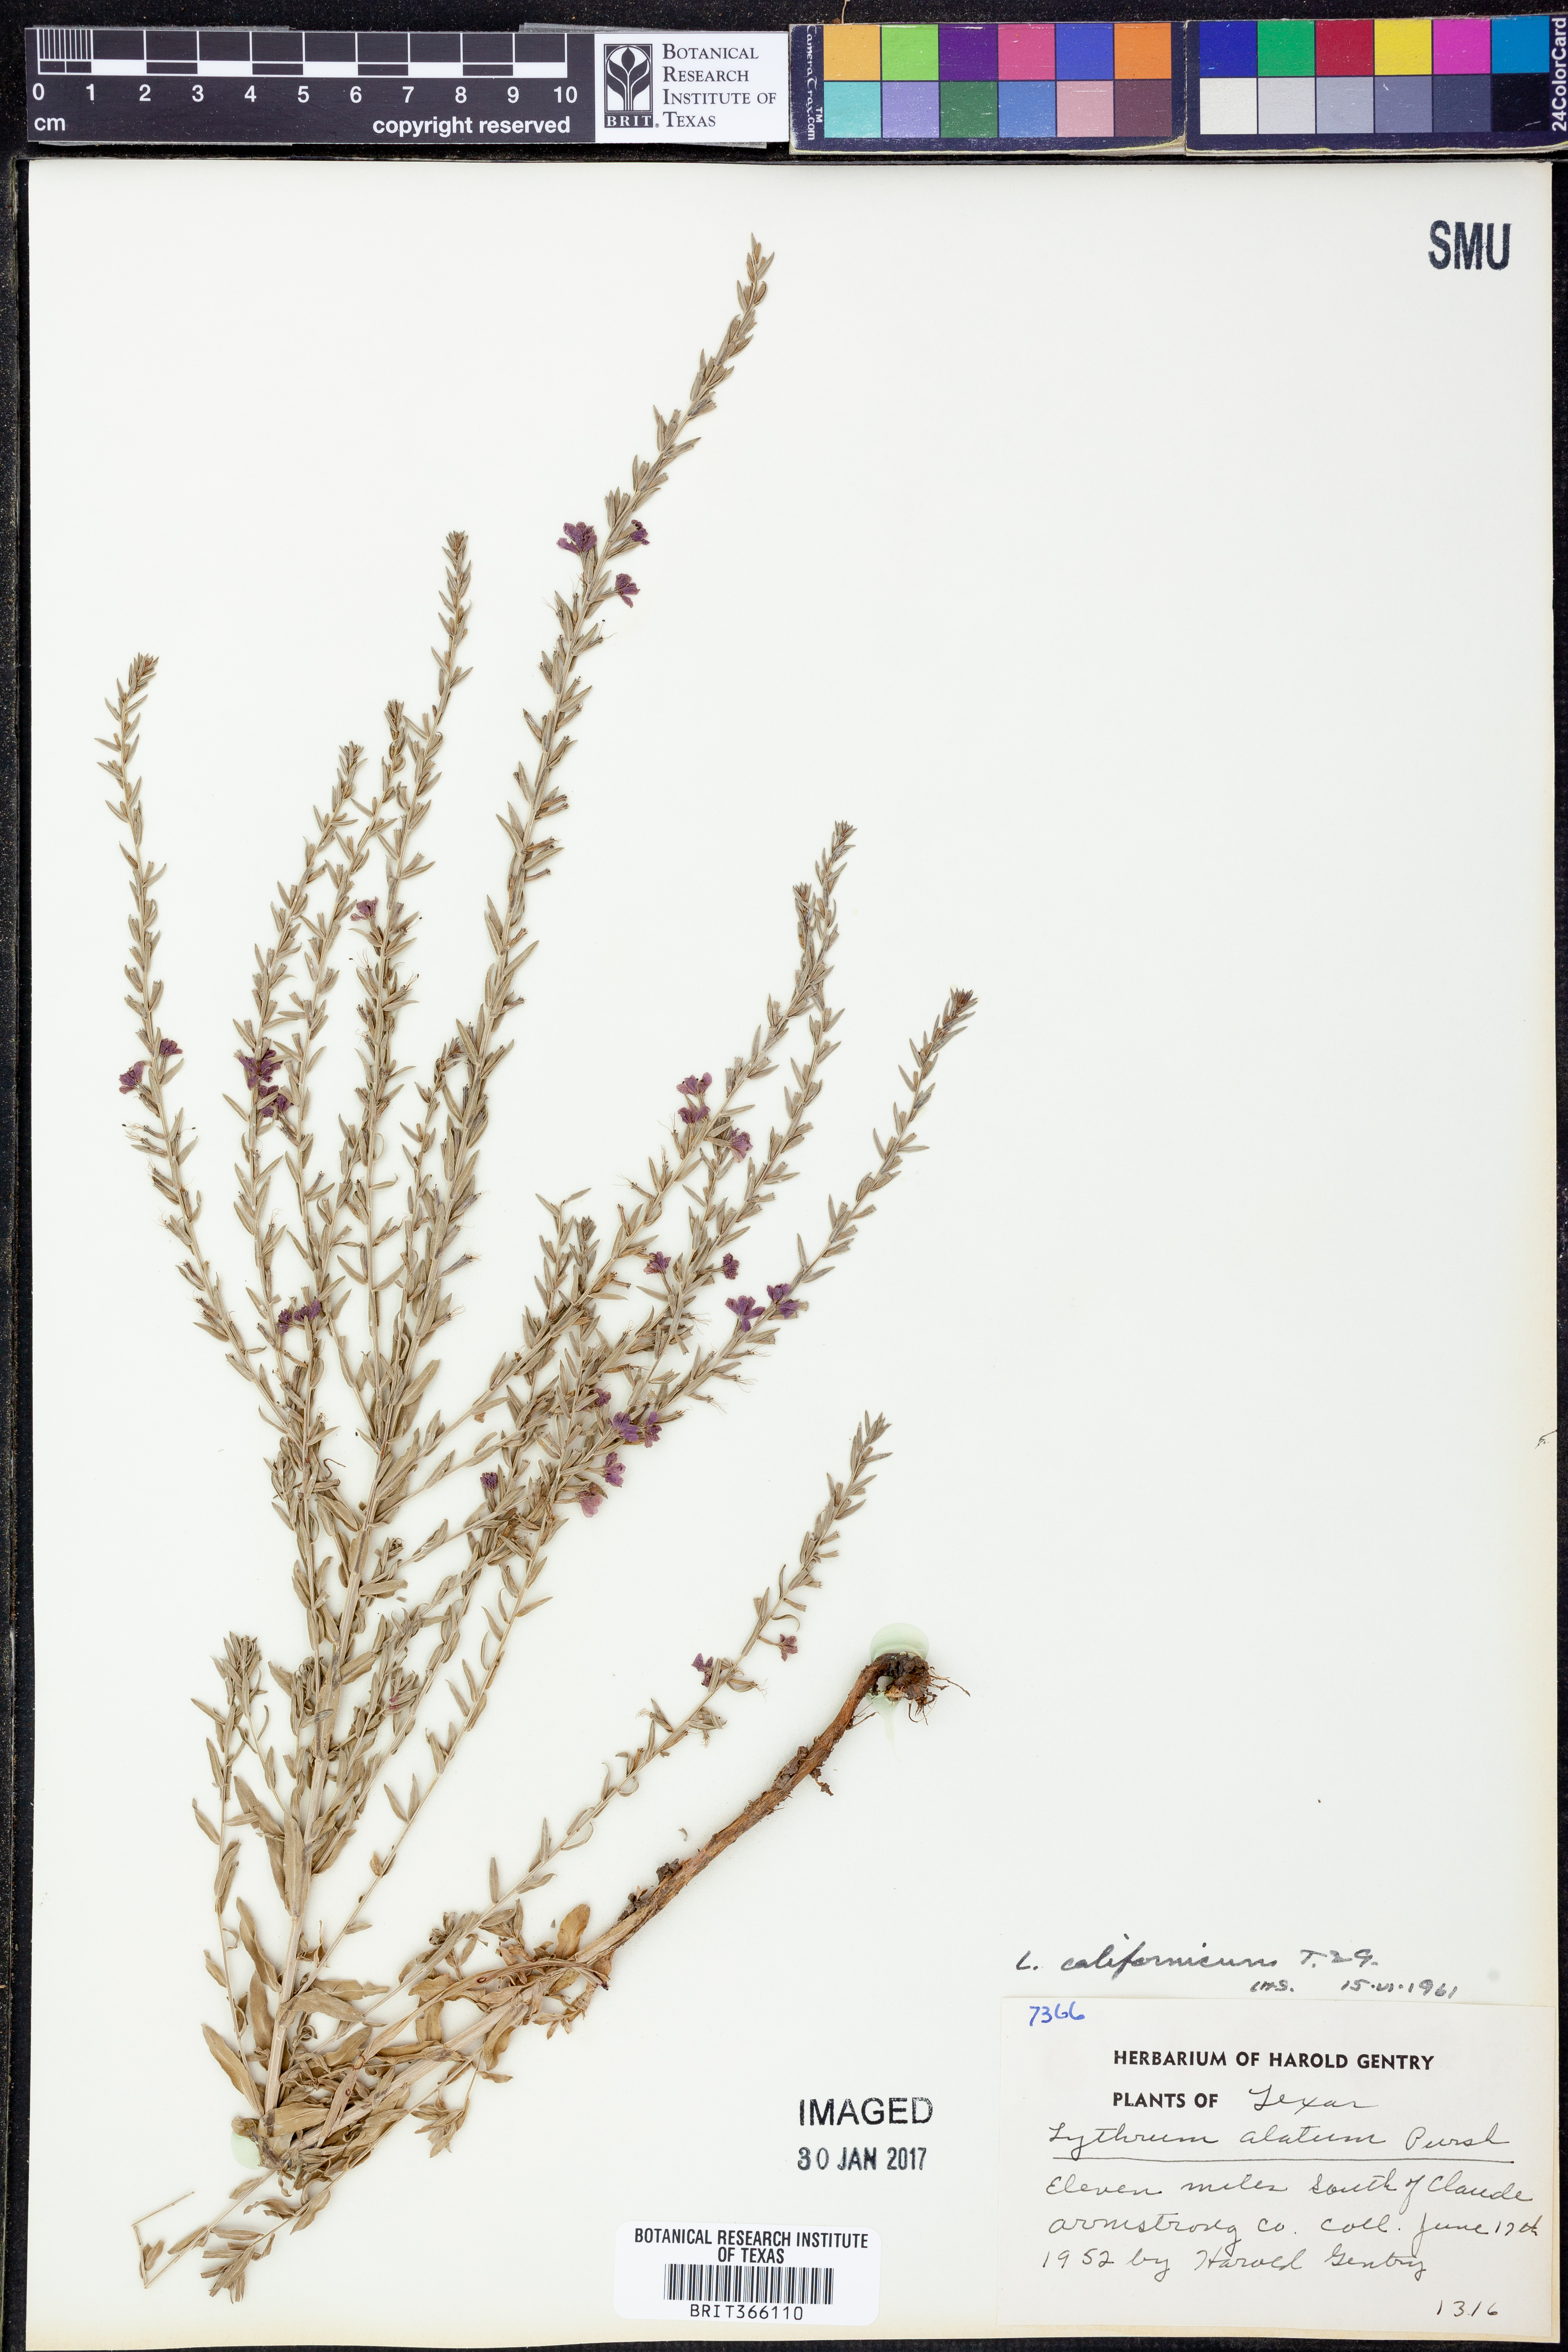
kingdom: Plantae
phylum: Tracheophyta
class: Magnoliopsida
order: Myrtales
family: Lythraceae
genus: Lythrum
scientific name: Lythrum californicum
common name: California loosestrife
